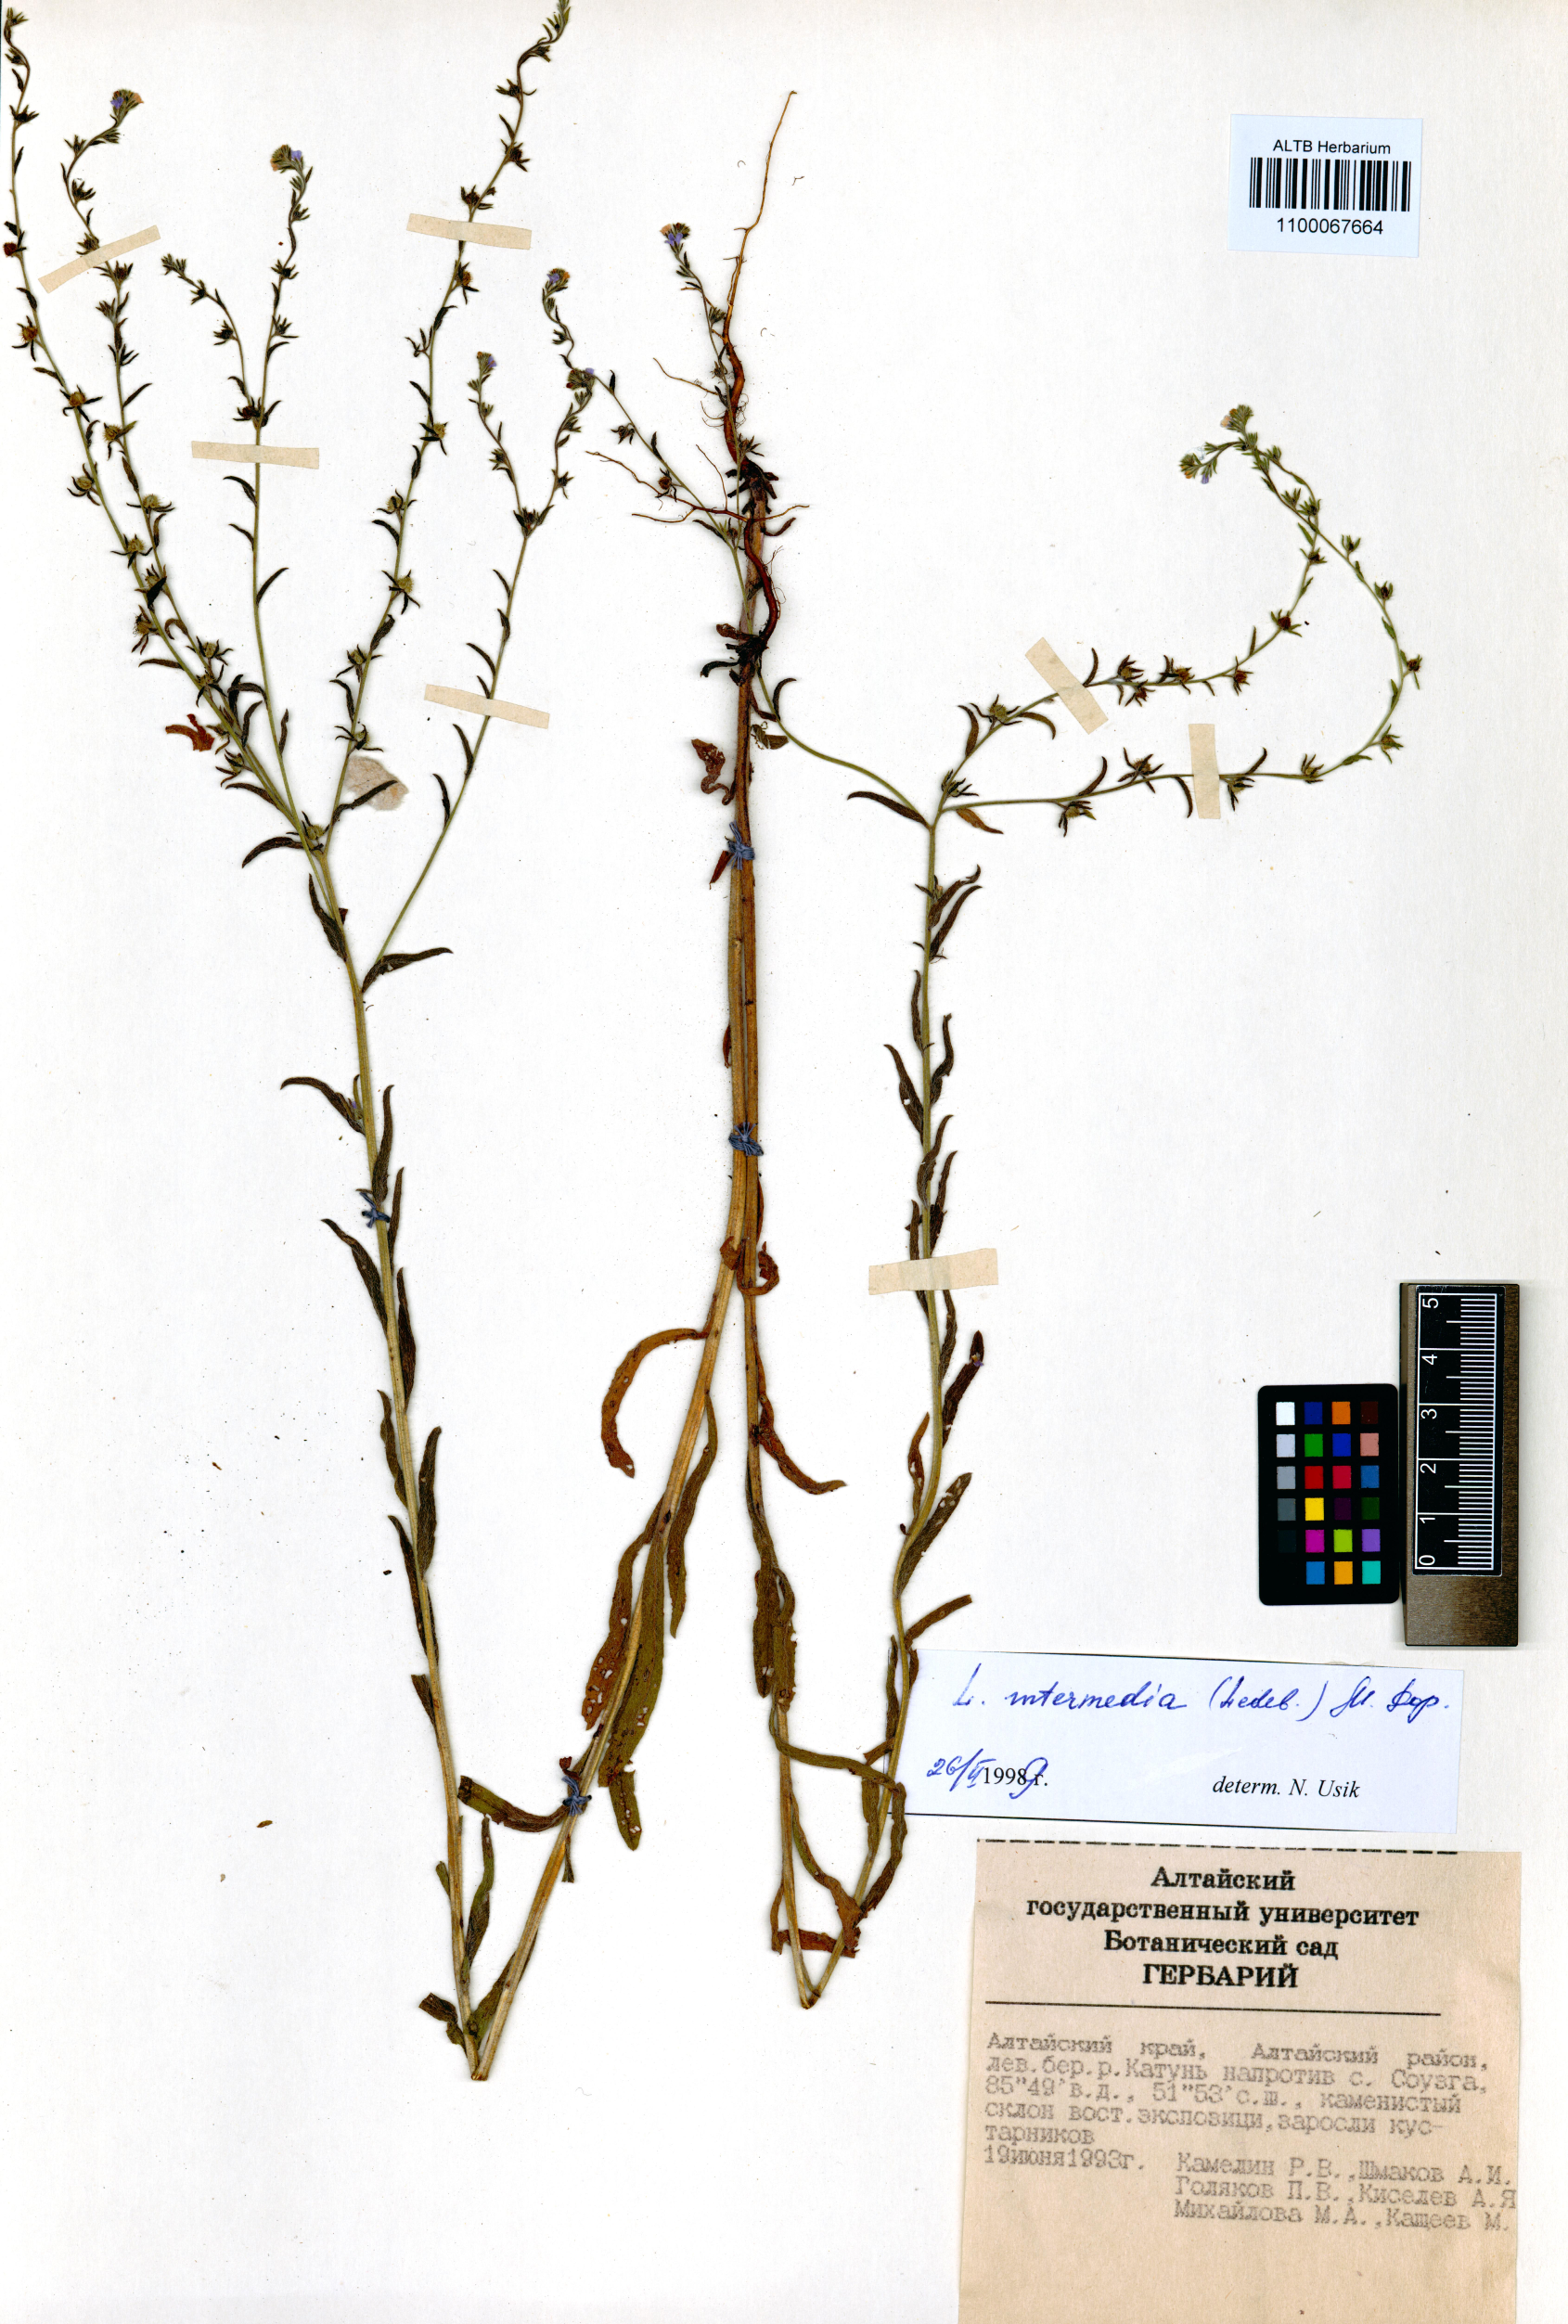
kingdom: Plantae
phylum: Tracheophyta
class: Magnoliopsida
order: Boraginales
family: Boraginaceae
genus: Lappula
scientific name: Lappula intermedia
